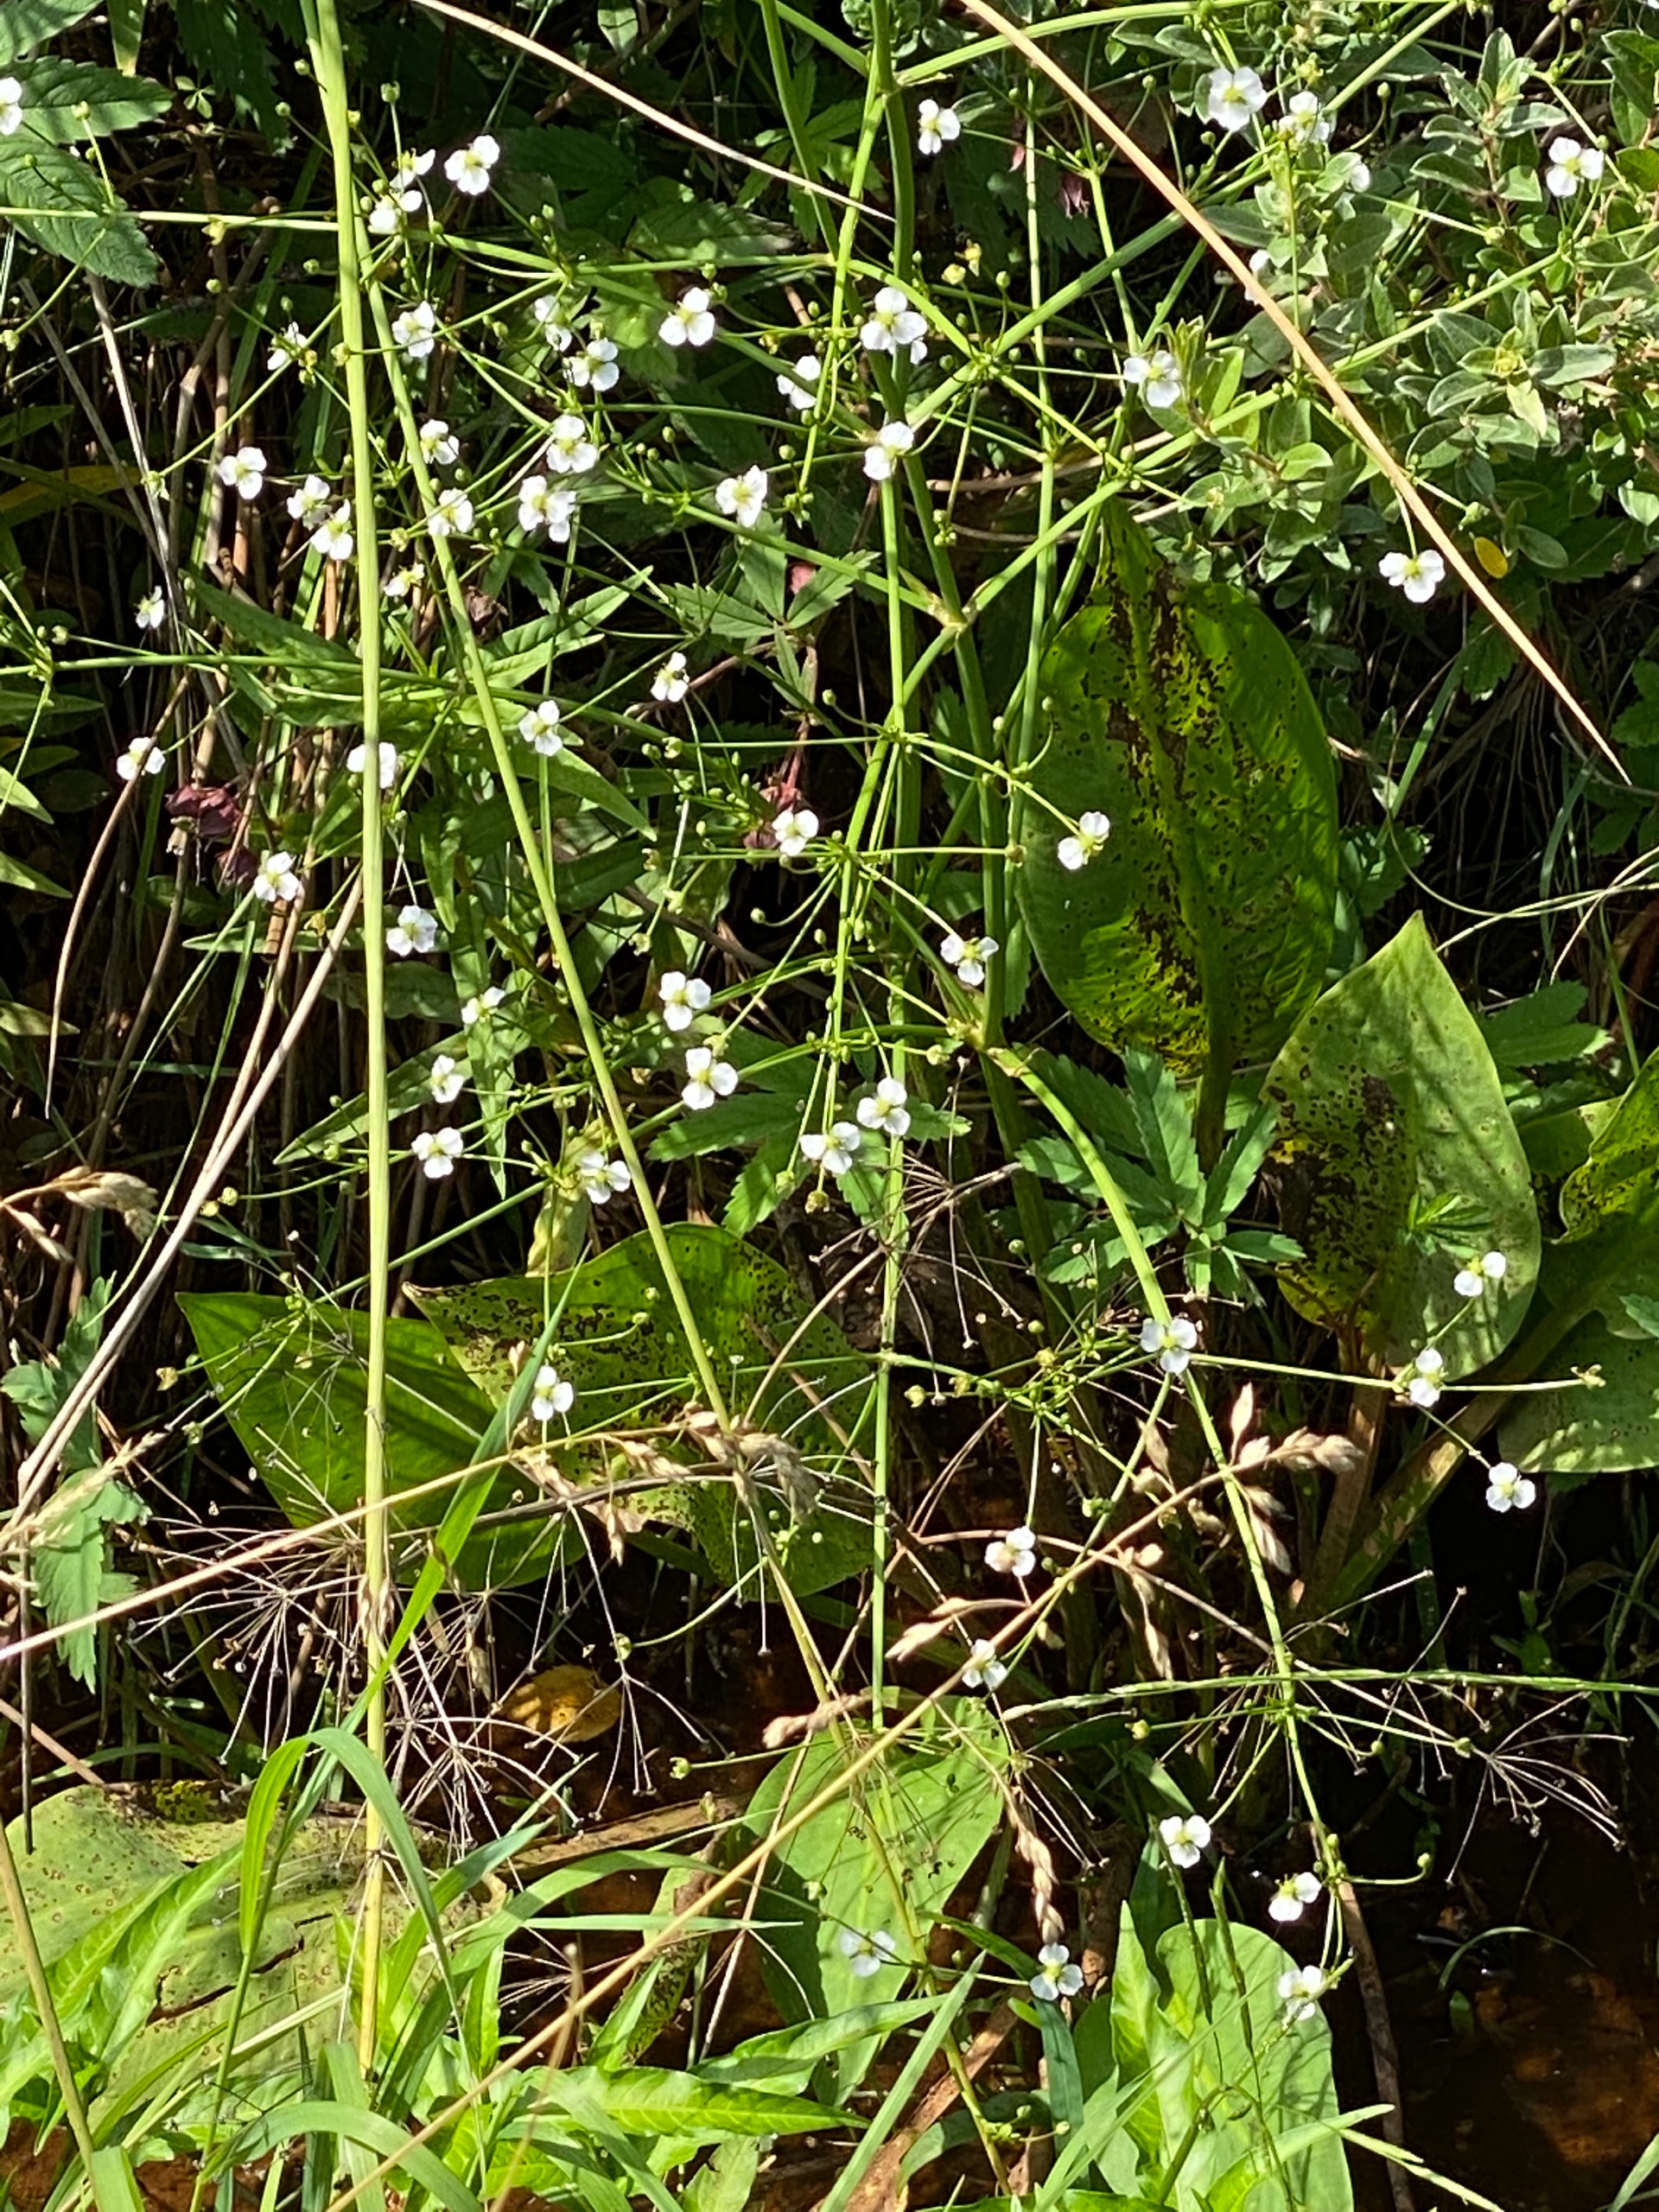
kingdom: Plantae
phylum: Tracheophyta
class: Liliopsida
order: Alismatales
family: Alismataceae
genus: Alisma
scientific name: Alisma plantago-aquatica
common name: Vejbred-skeblad
